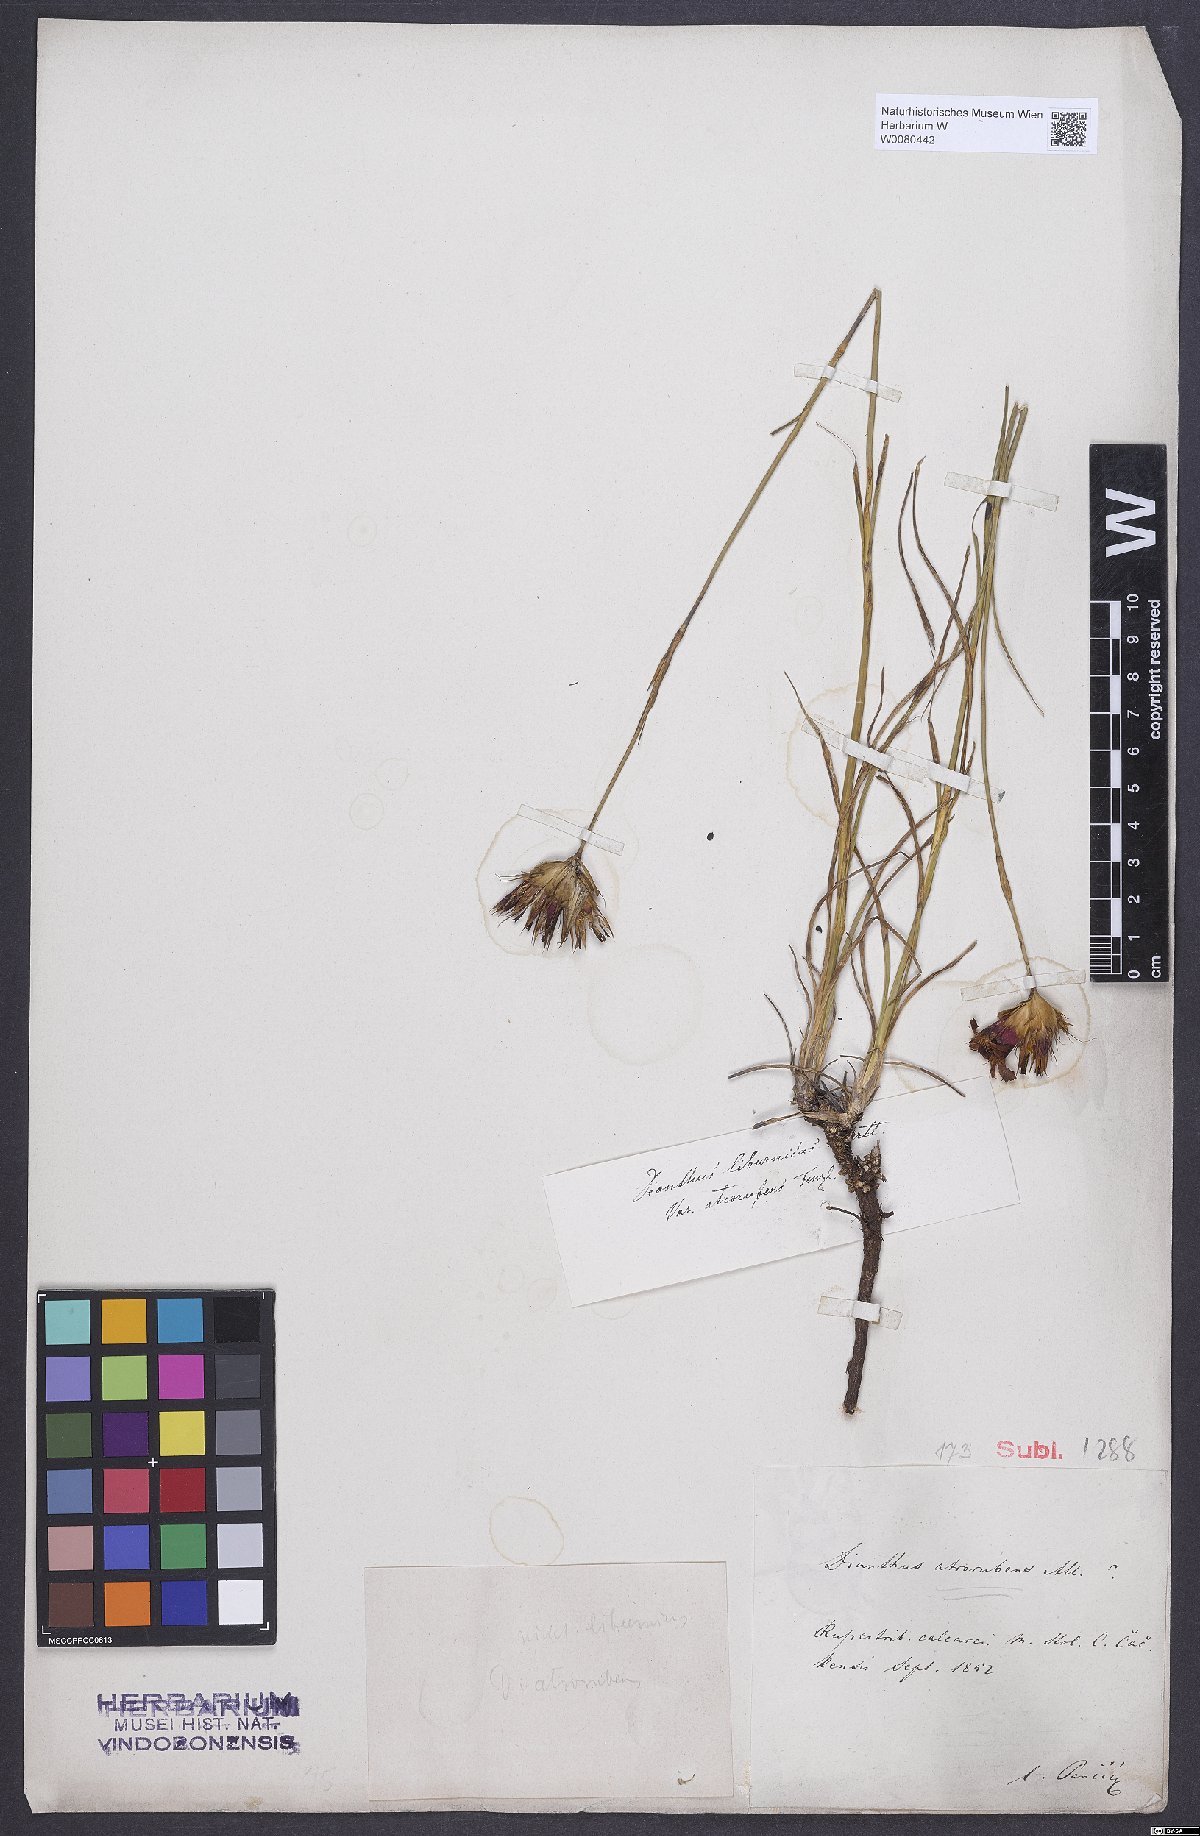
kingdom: Plantae
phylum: Tracheophyta
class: Magnoliopsida
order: Caryophyllales
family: Caryophyllaceae
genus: Dianthus
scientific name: Dianthus carthusianorum
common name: Carthusian pink
